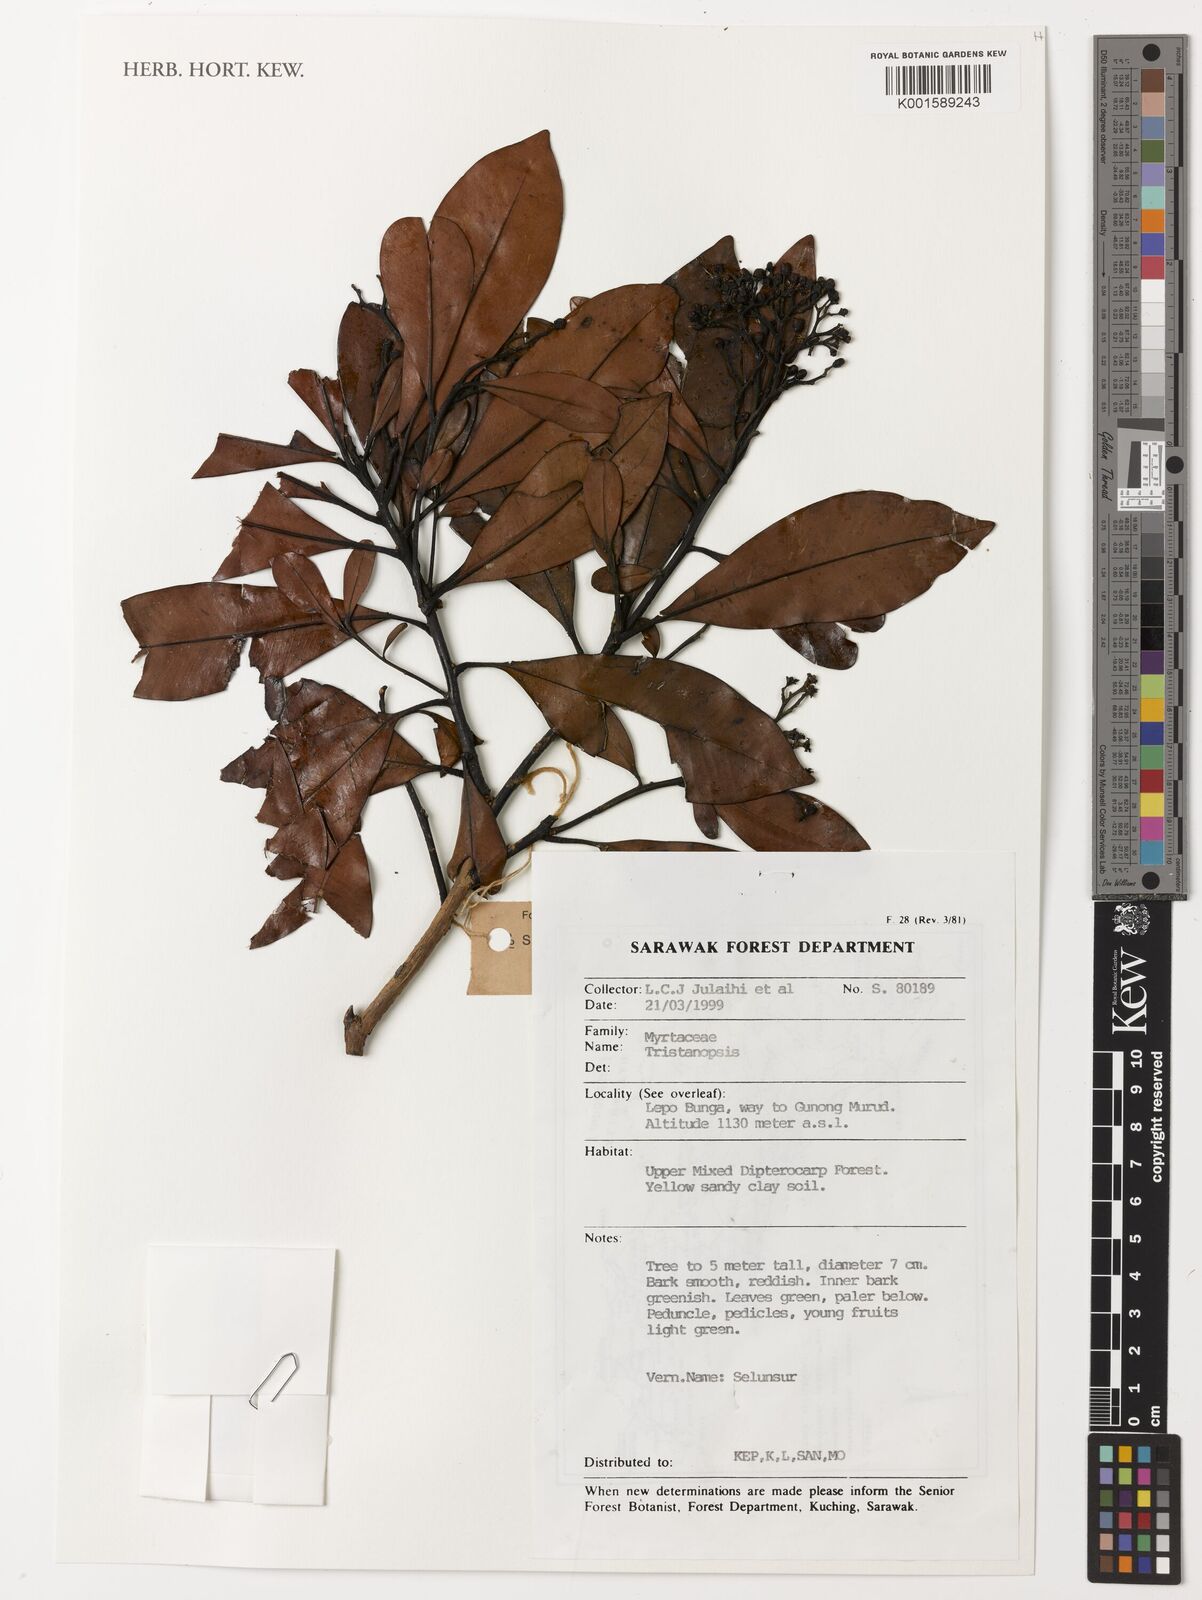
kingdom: Plantae
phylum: Tracheophyta
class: Magnoliopsida
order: Myrtales
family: Myrtaceae
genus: Tristaniopsis
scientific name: Tristaniopsis
